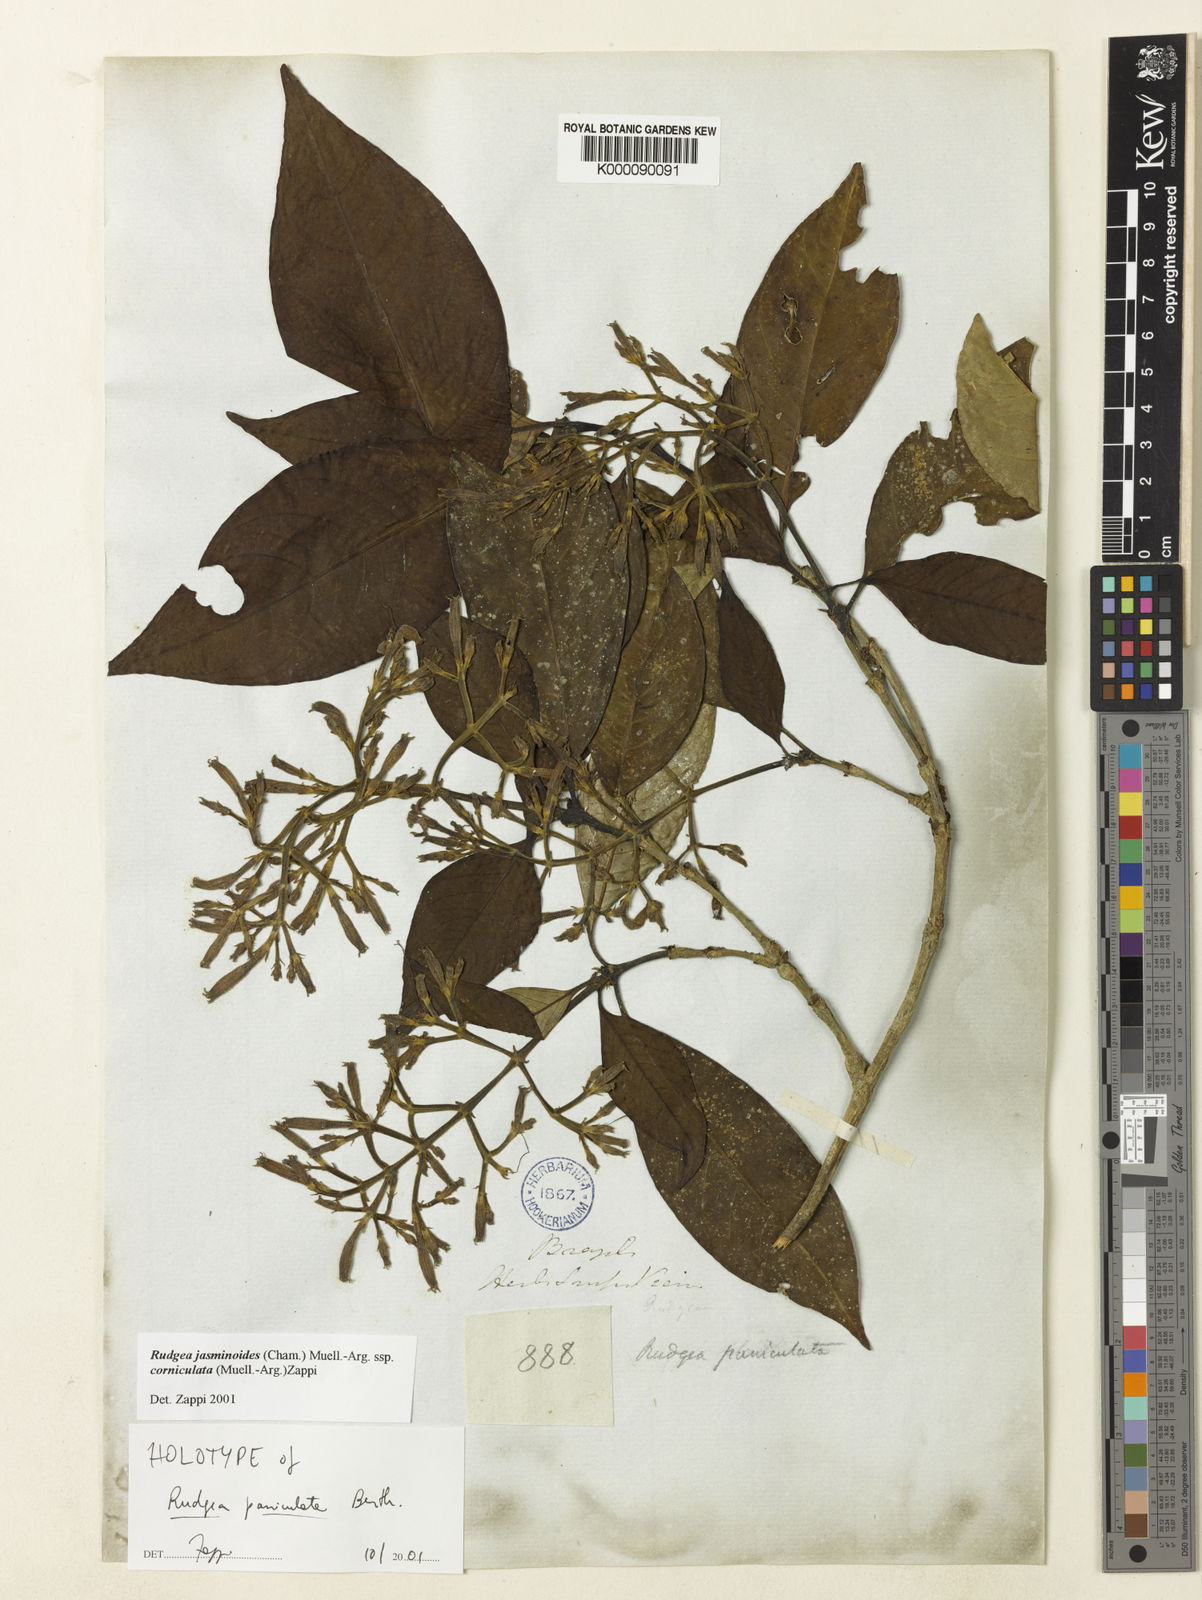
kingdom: Plantae
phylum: Tracheophyta
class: Magnoliopsida
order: Gentianales
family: Rubiaceae
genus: Rudgea
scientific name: Rudgea
